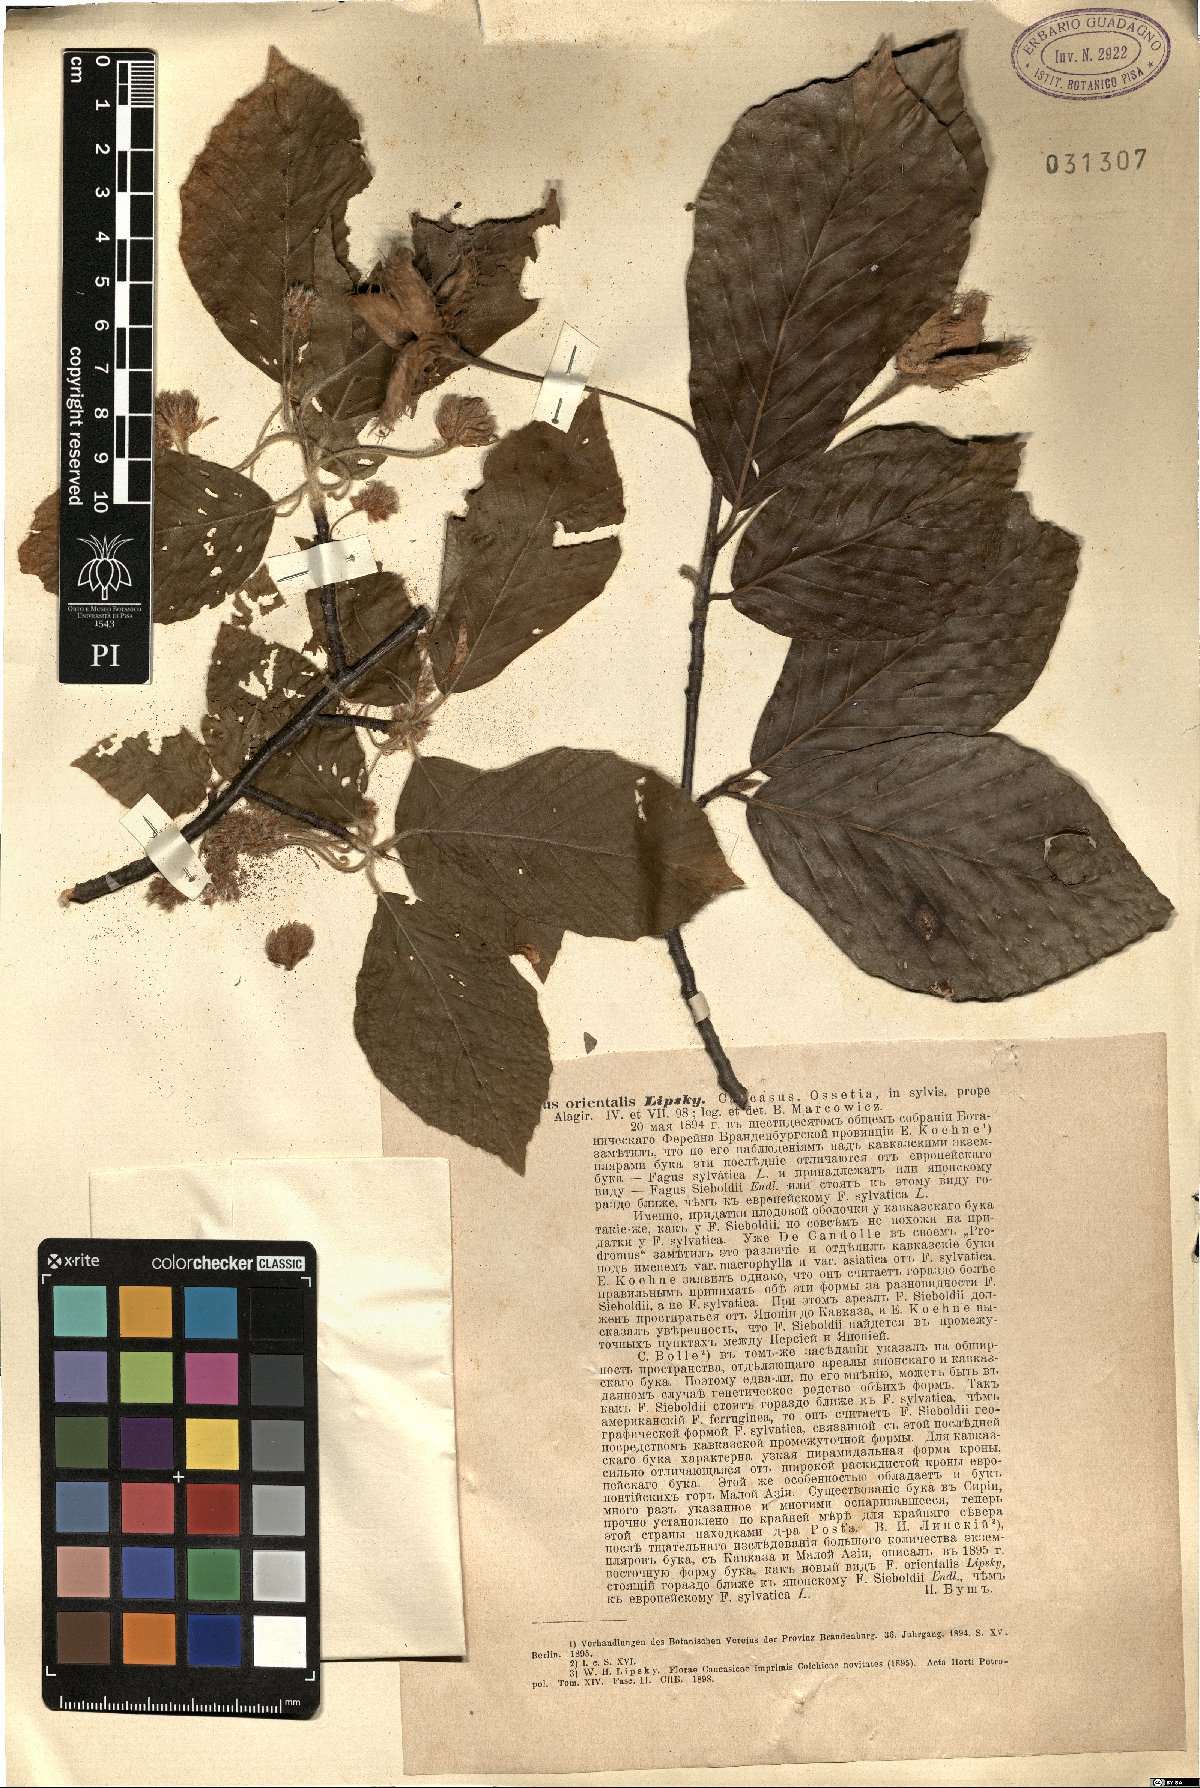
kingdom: Plantae
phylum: Tracheophyta
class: Magnoliopsida
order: Fagales
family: Fagaceae
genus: Fagus
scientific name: Fagus orientalis
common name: Oriental beech
